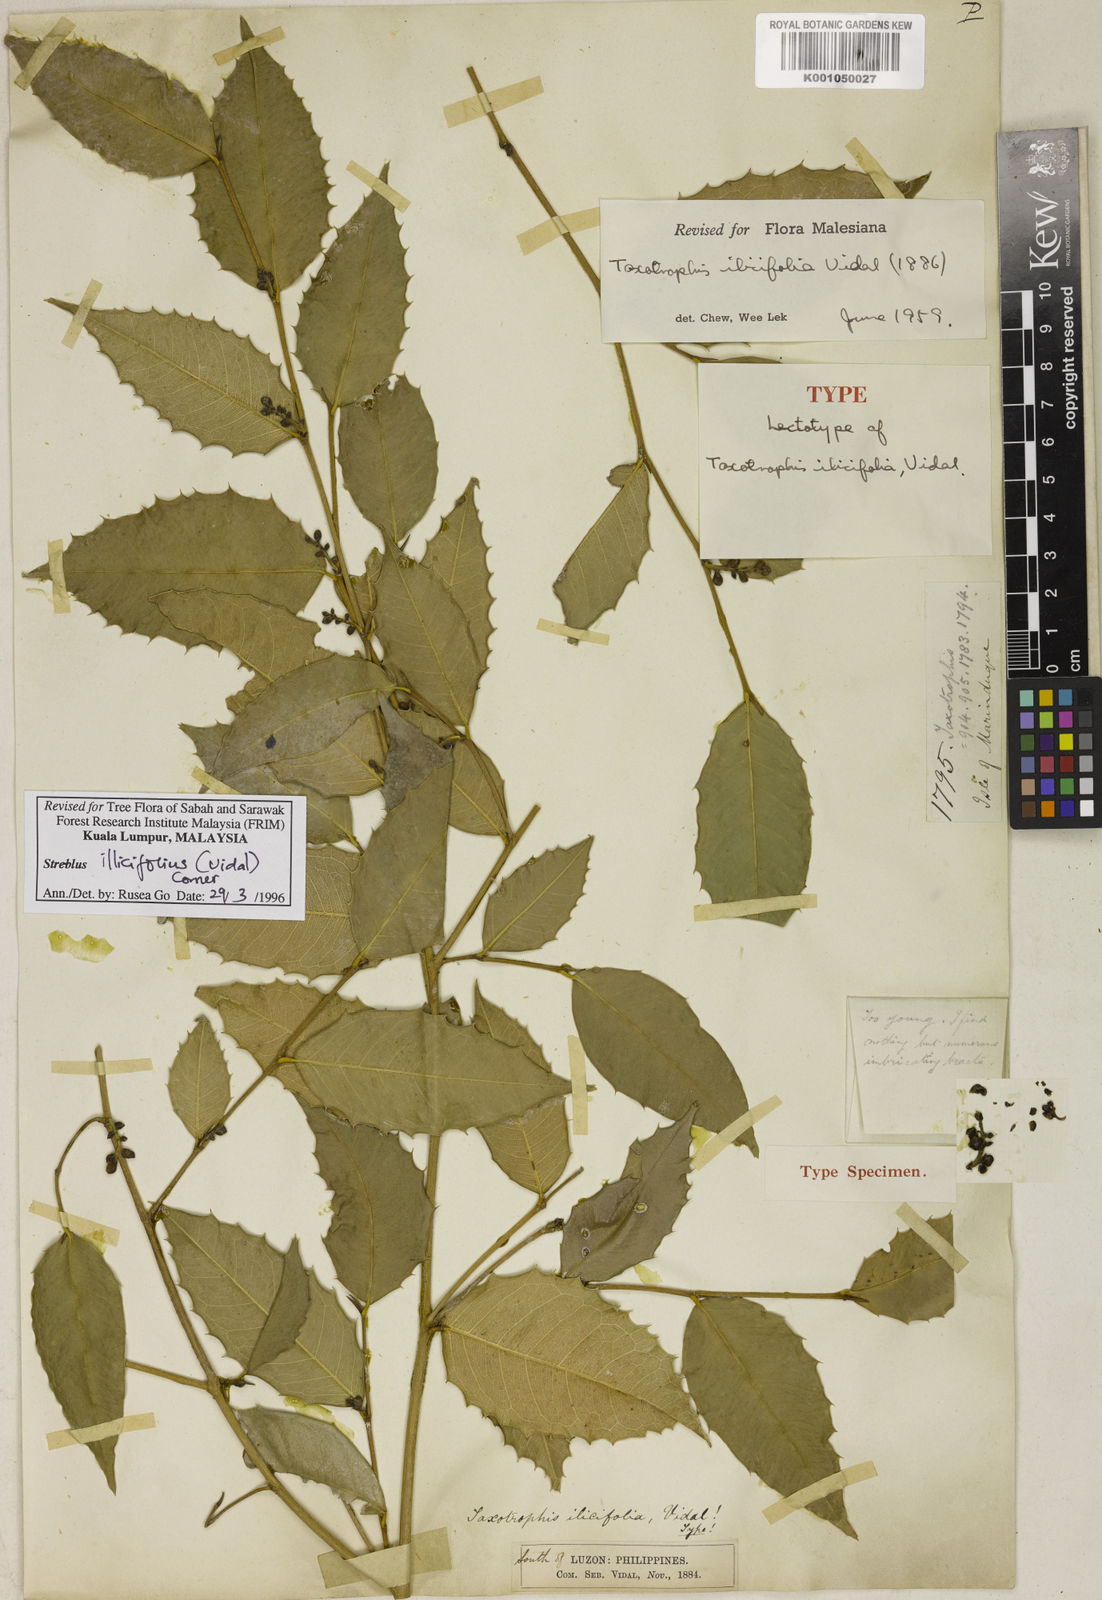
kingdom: Plantae
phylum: Tracheophyta
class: Magnoliopsida
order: Rosales
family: Moraceae
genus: Taxotrophis
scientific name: Taxotrophis ilicifolia
